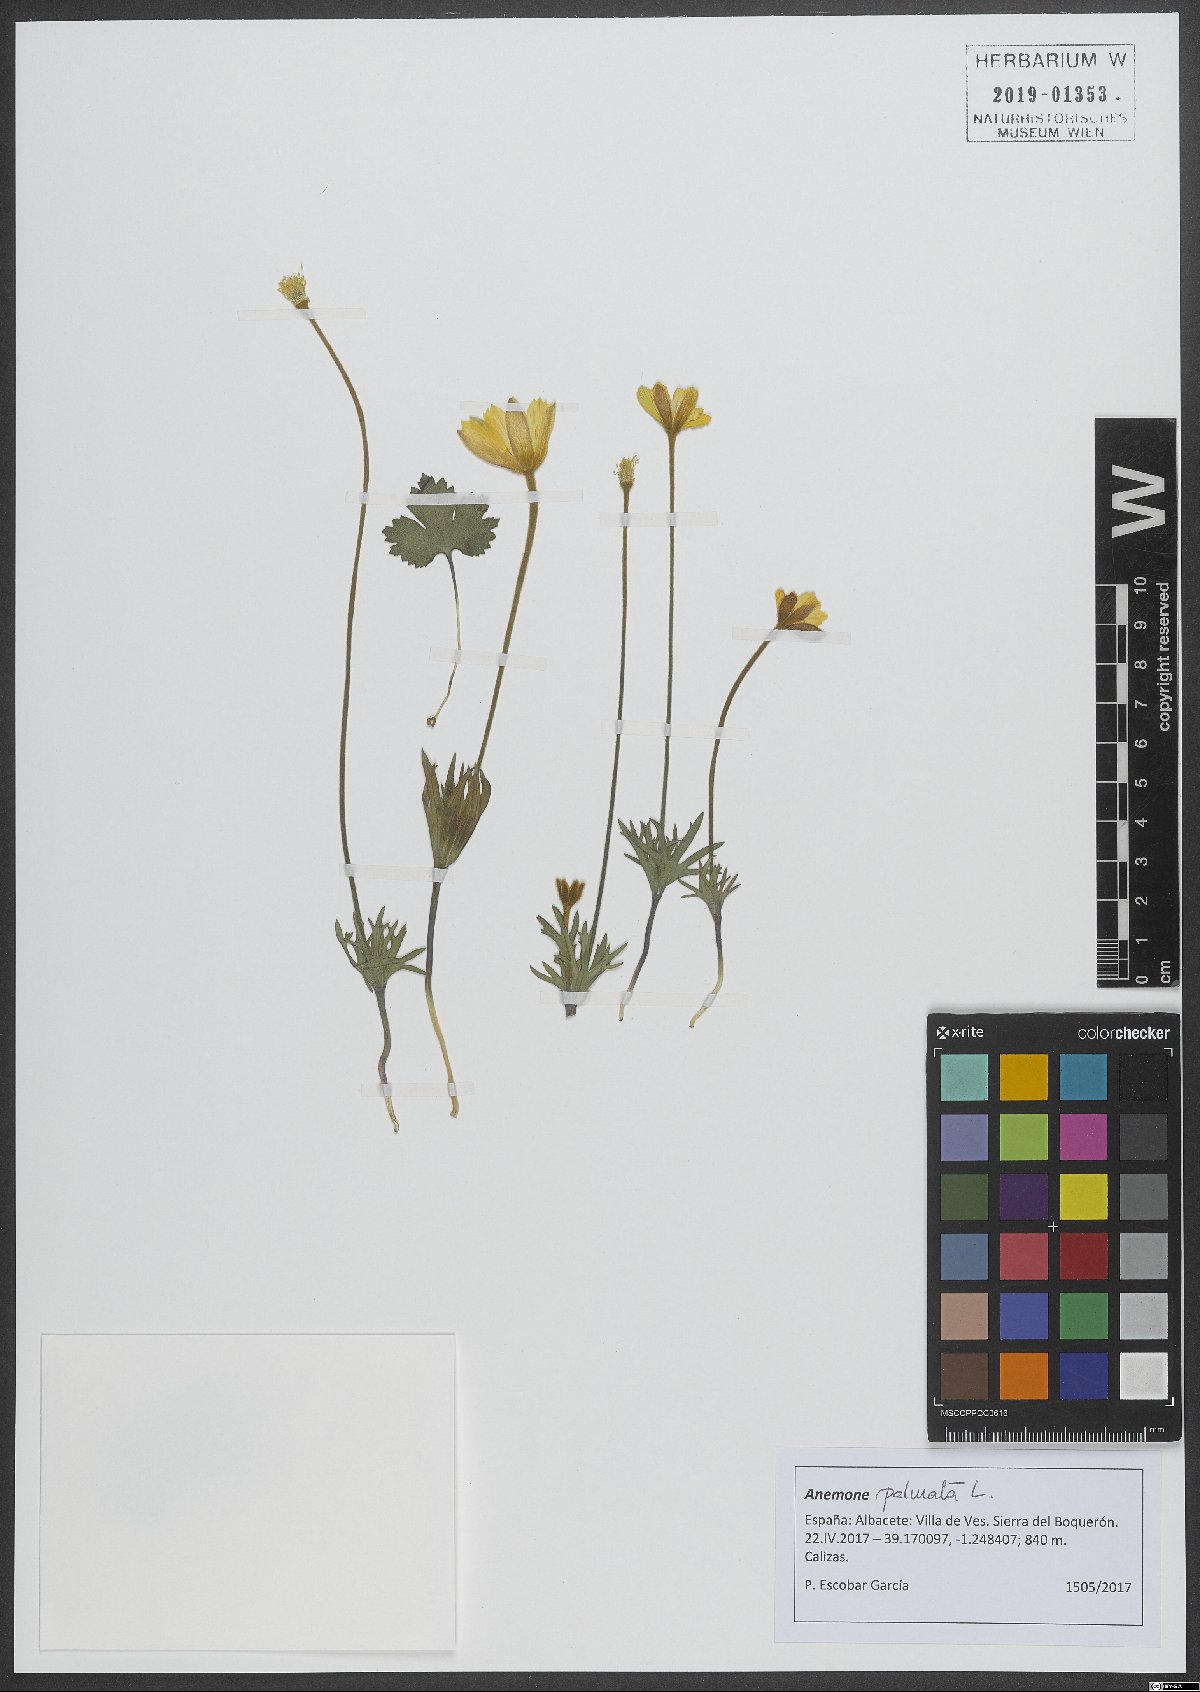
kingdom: Plantae
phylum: Tracheophyta
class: Magnoliopsida
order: Ranunculales
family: Ranunculaceae
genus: Anemone
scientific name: Anemone palmata
